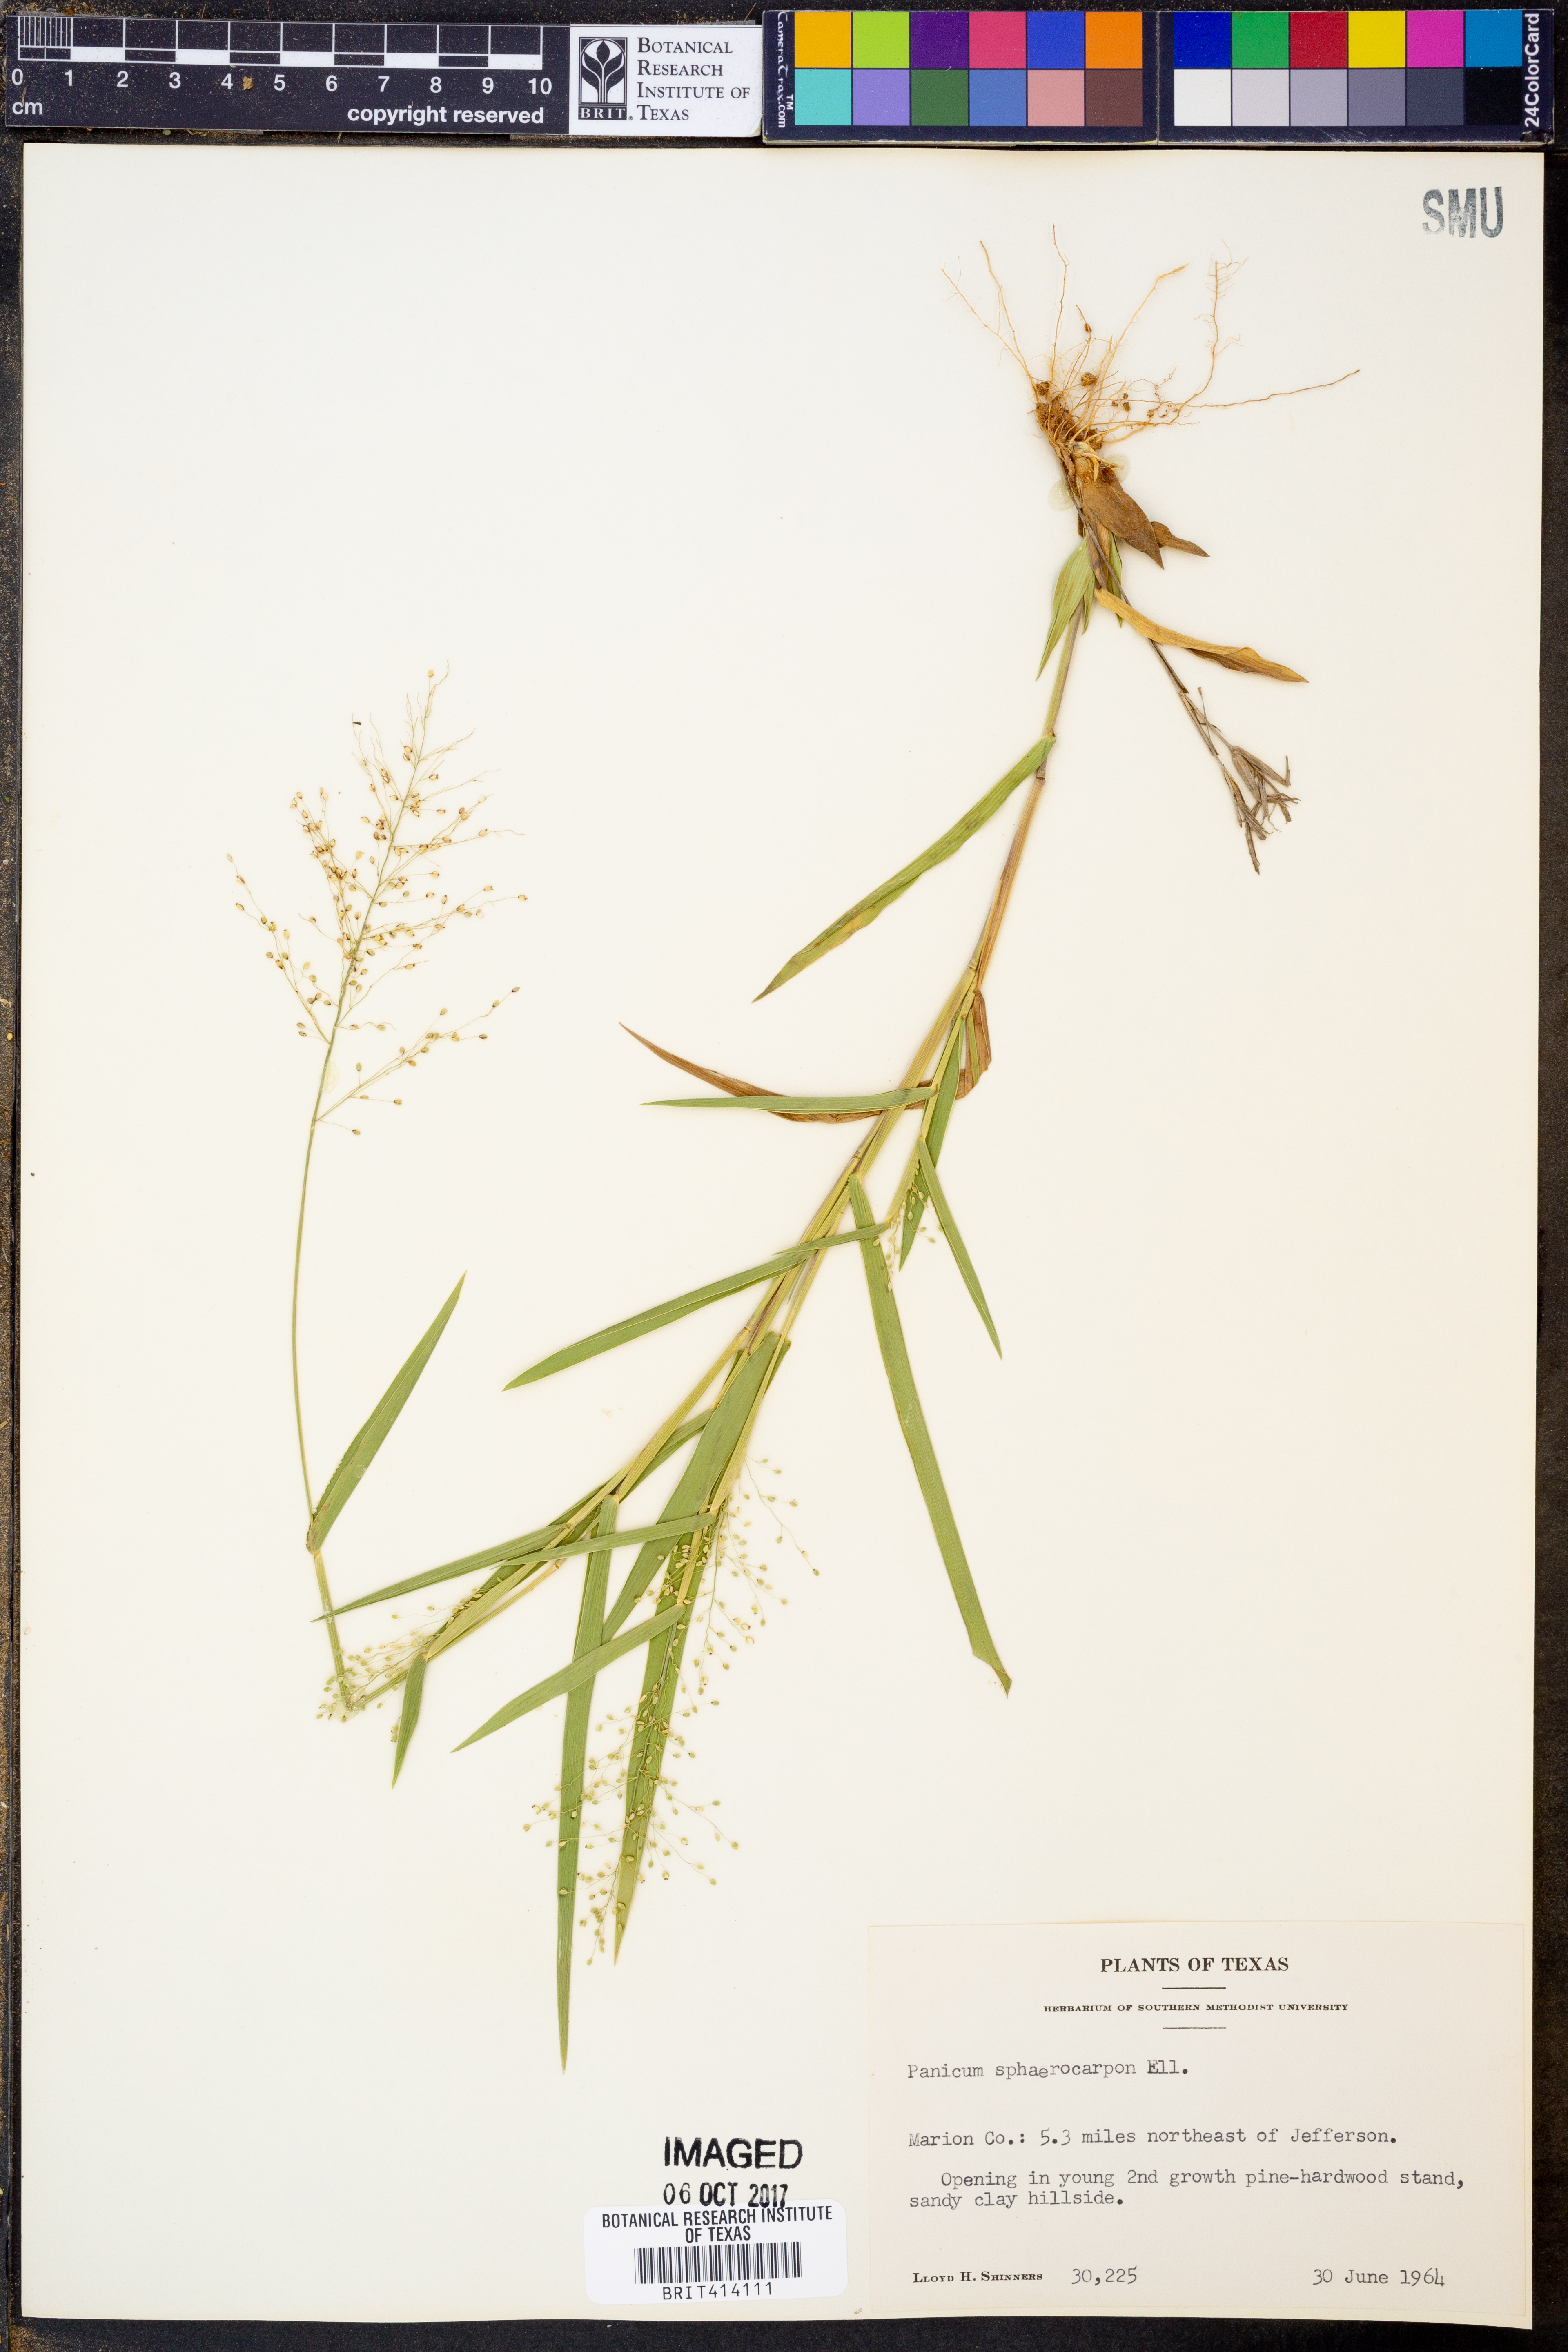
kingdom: Plantae
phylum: Tracheophyta
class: Liliopsida
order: Poales
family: Poaceae
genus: Dichanthelium
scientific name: Dichanthelium sphaerocarpon
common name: Round-fruited panicgrass
